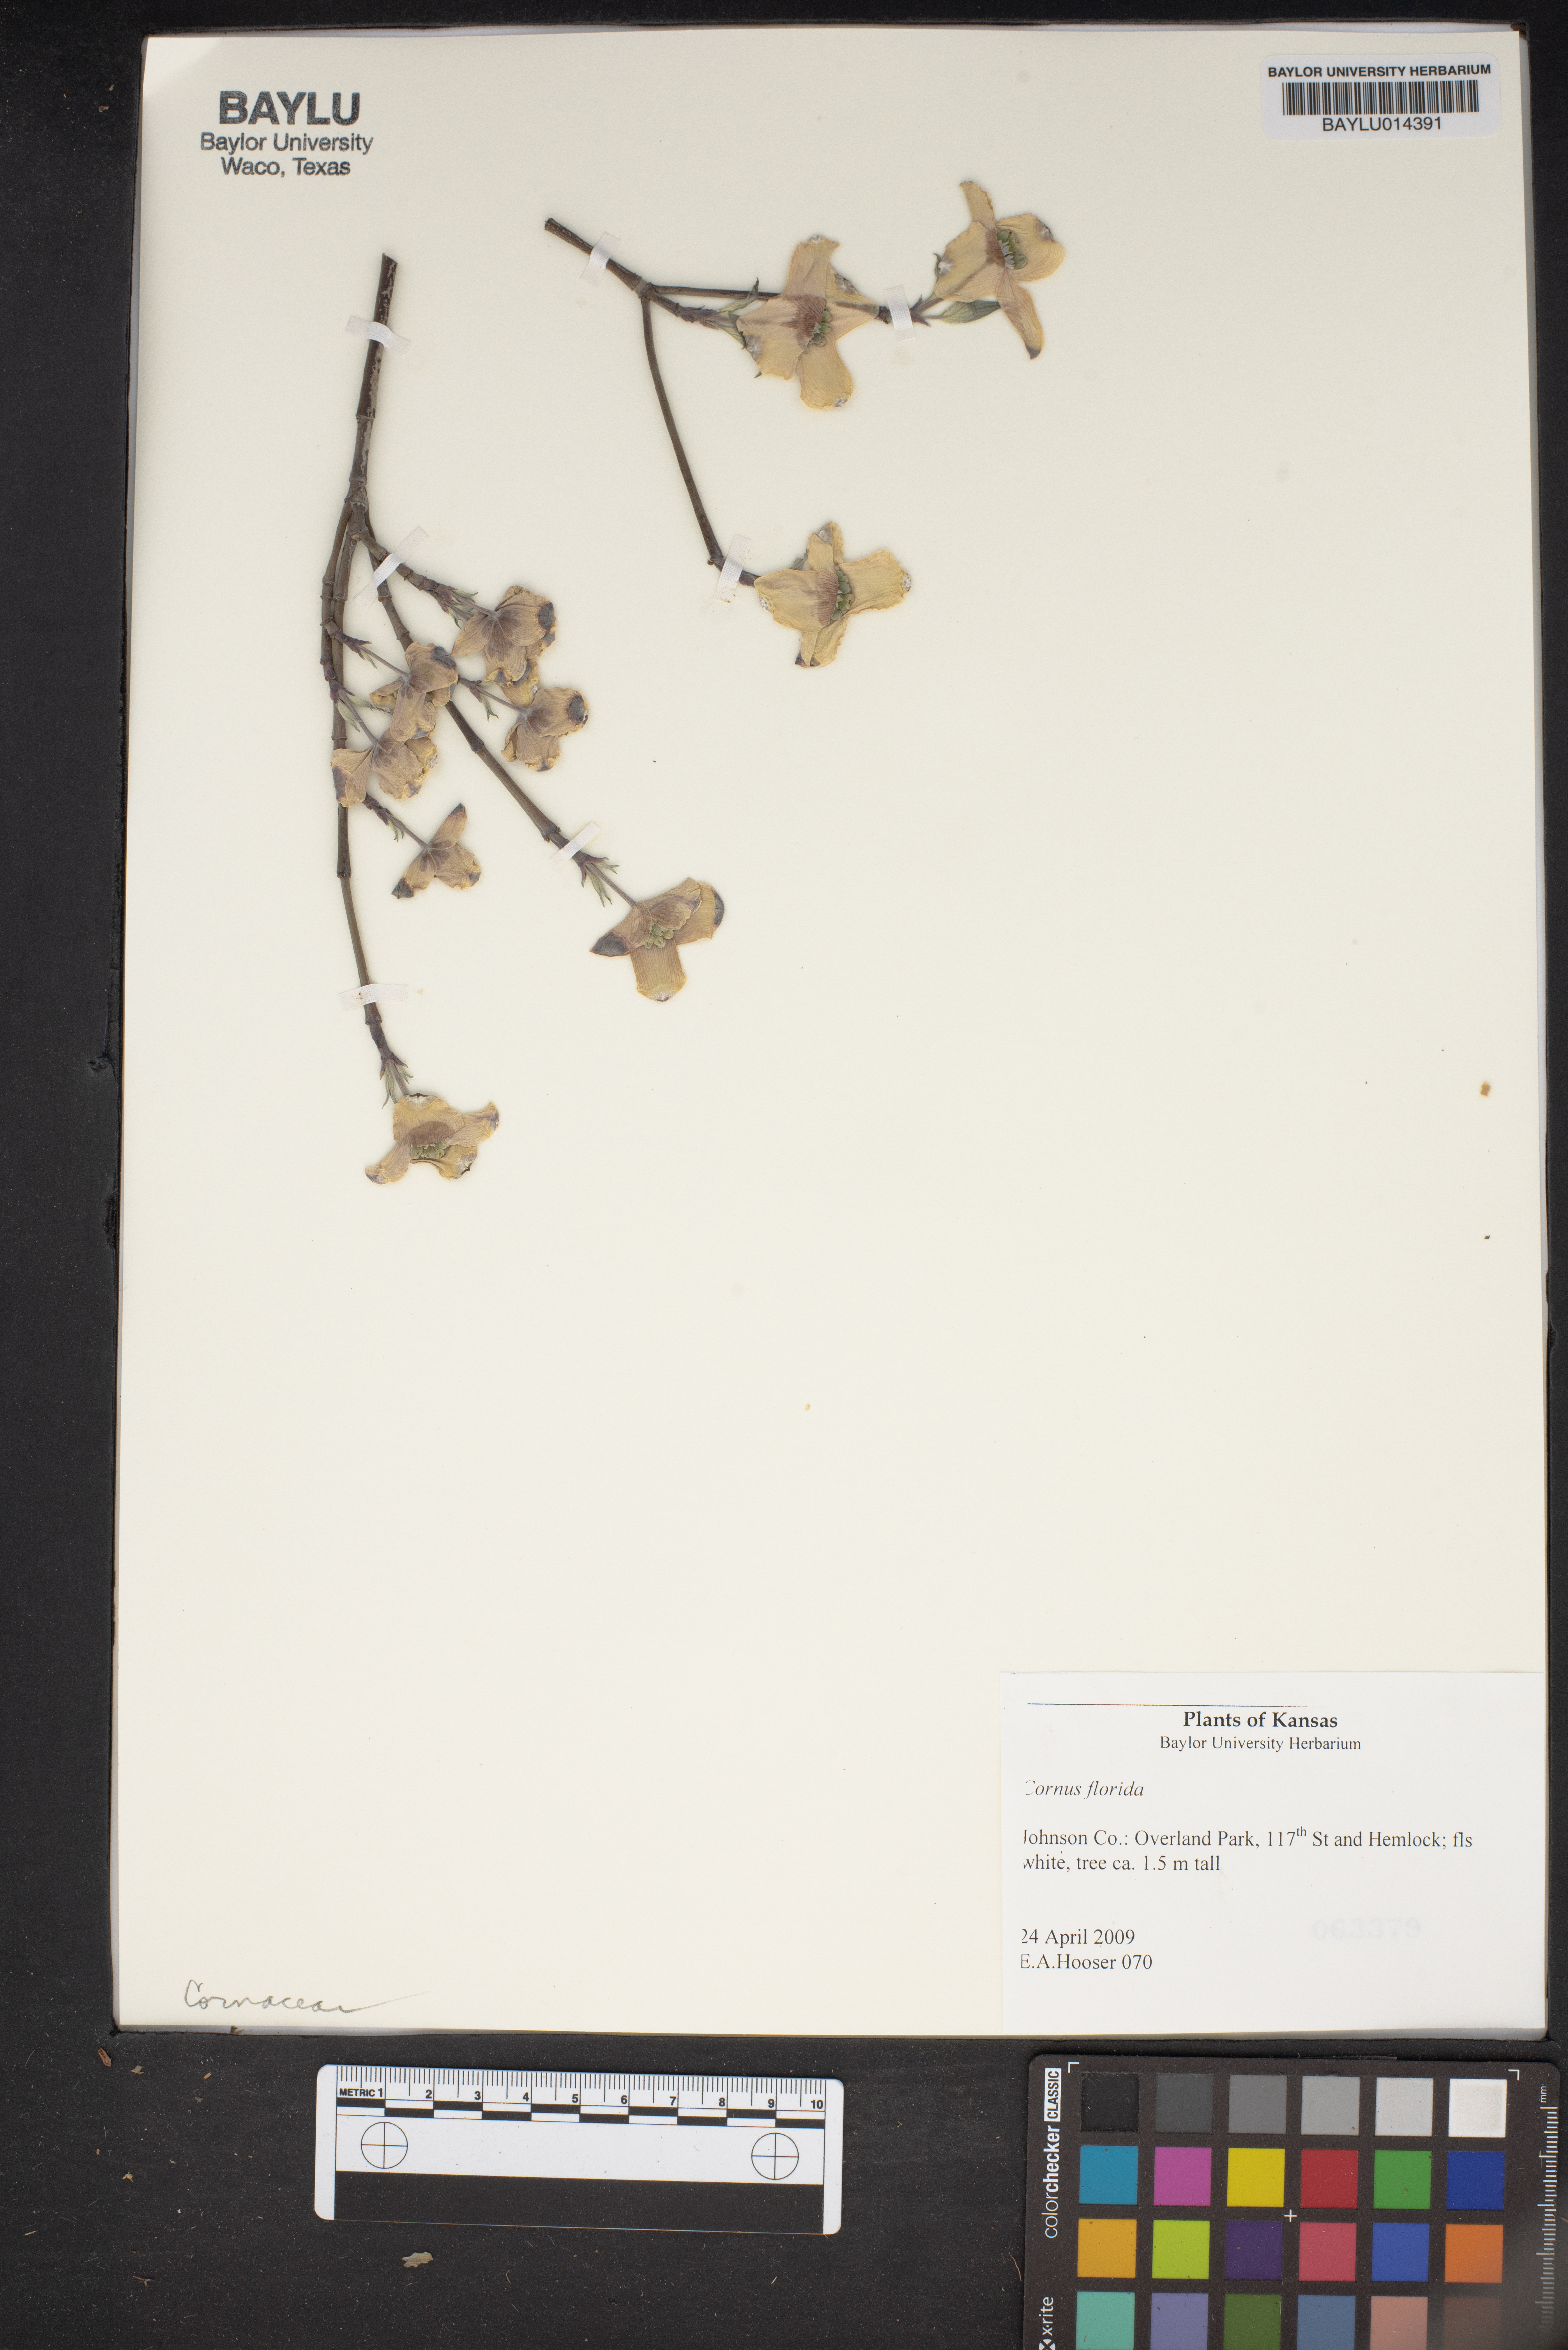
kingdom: Plantae
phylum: Tracheophyta
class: Magnoliopsida
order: Cornales
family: Cornaceae
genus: Cornus
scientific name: Cornus florida
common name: Flowering dogwood
